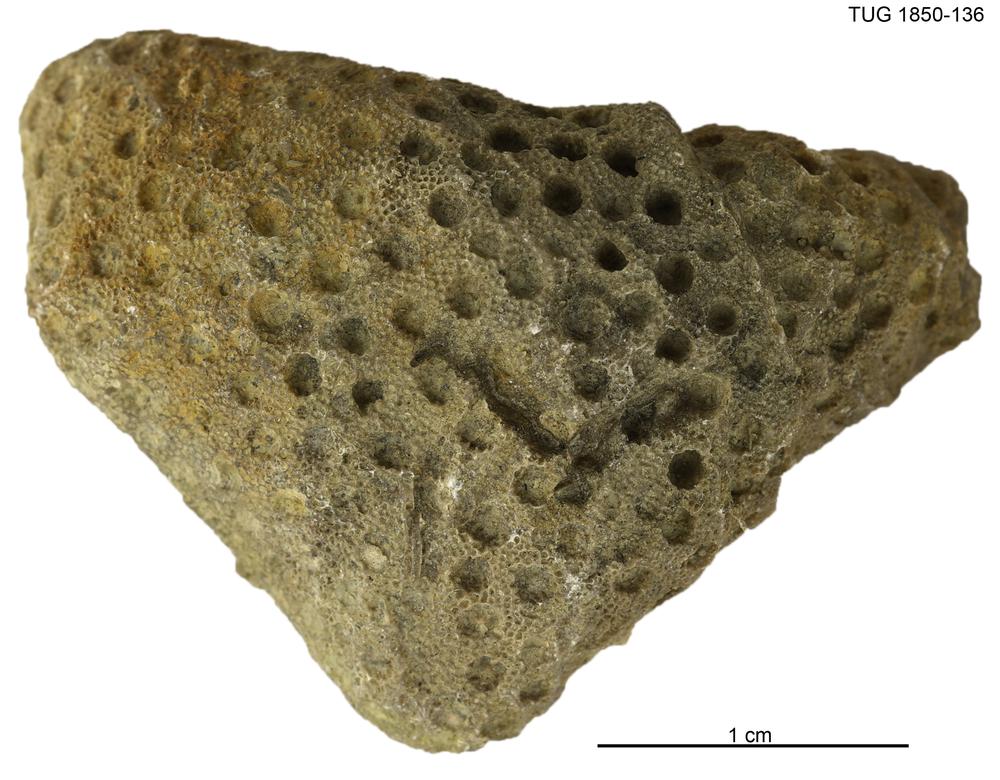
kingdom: Animalia
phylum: Cnidaria
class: Anthozoa
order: Heliolitina
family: Heliolitidae
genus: Heliolites
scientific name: Heliolites
